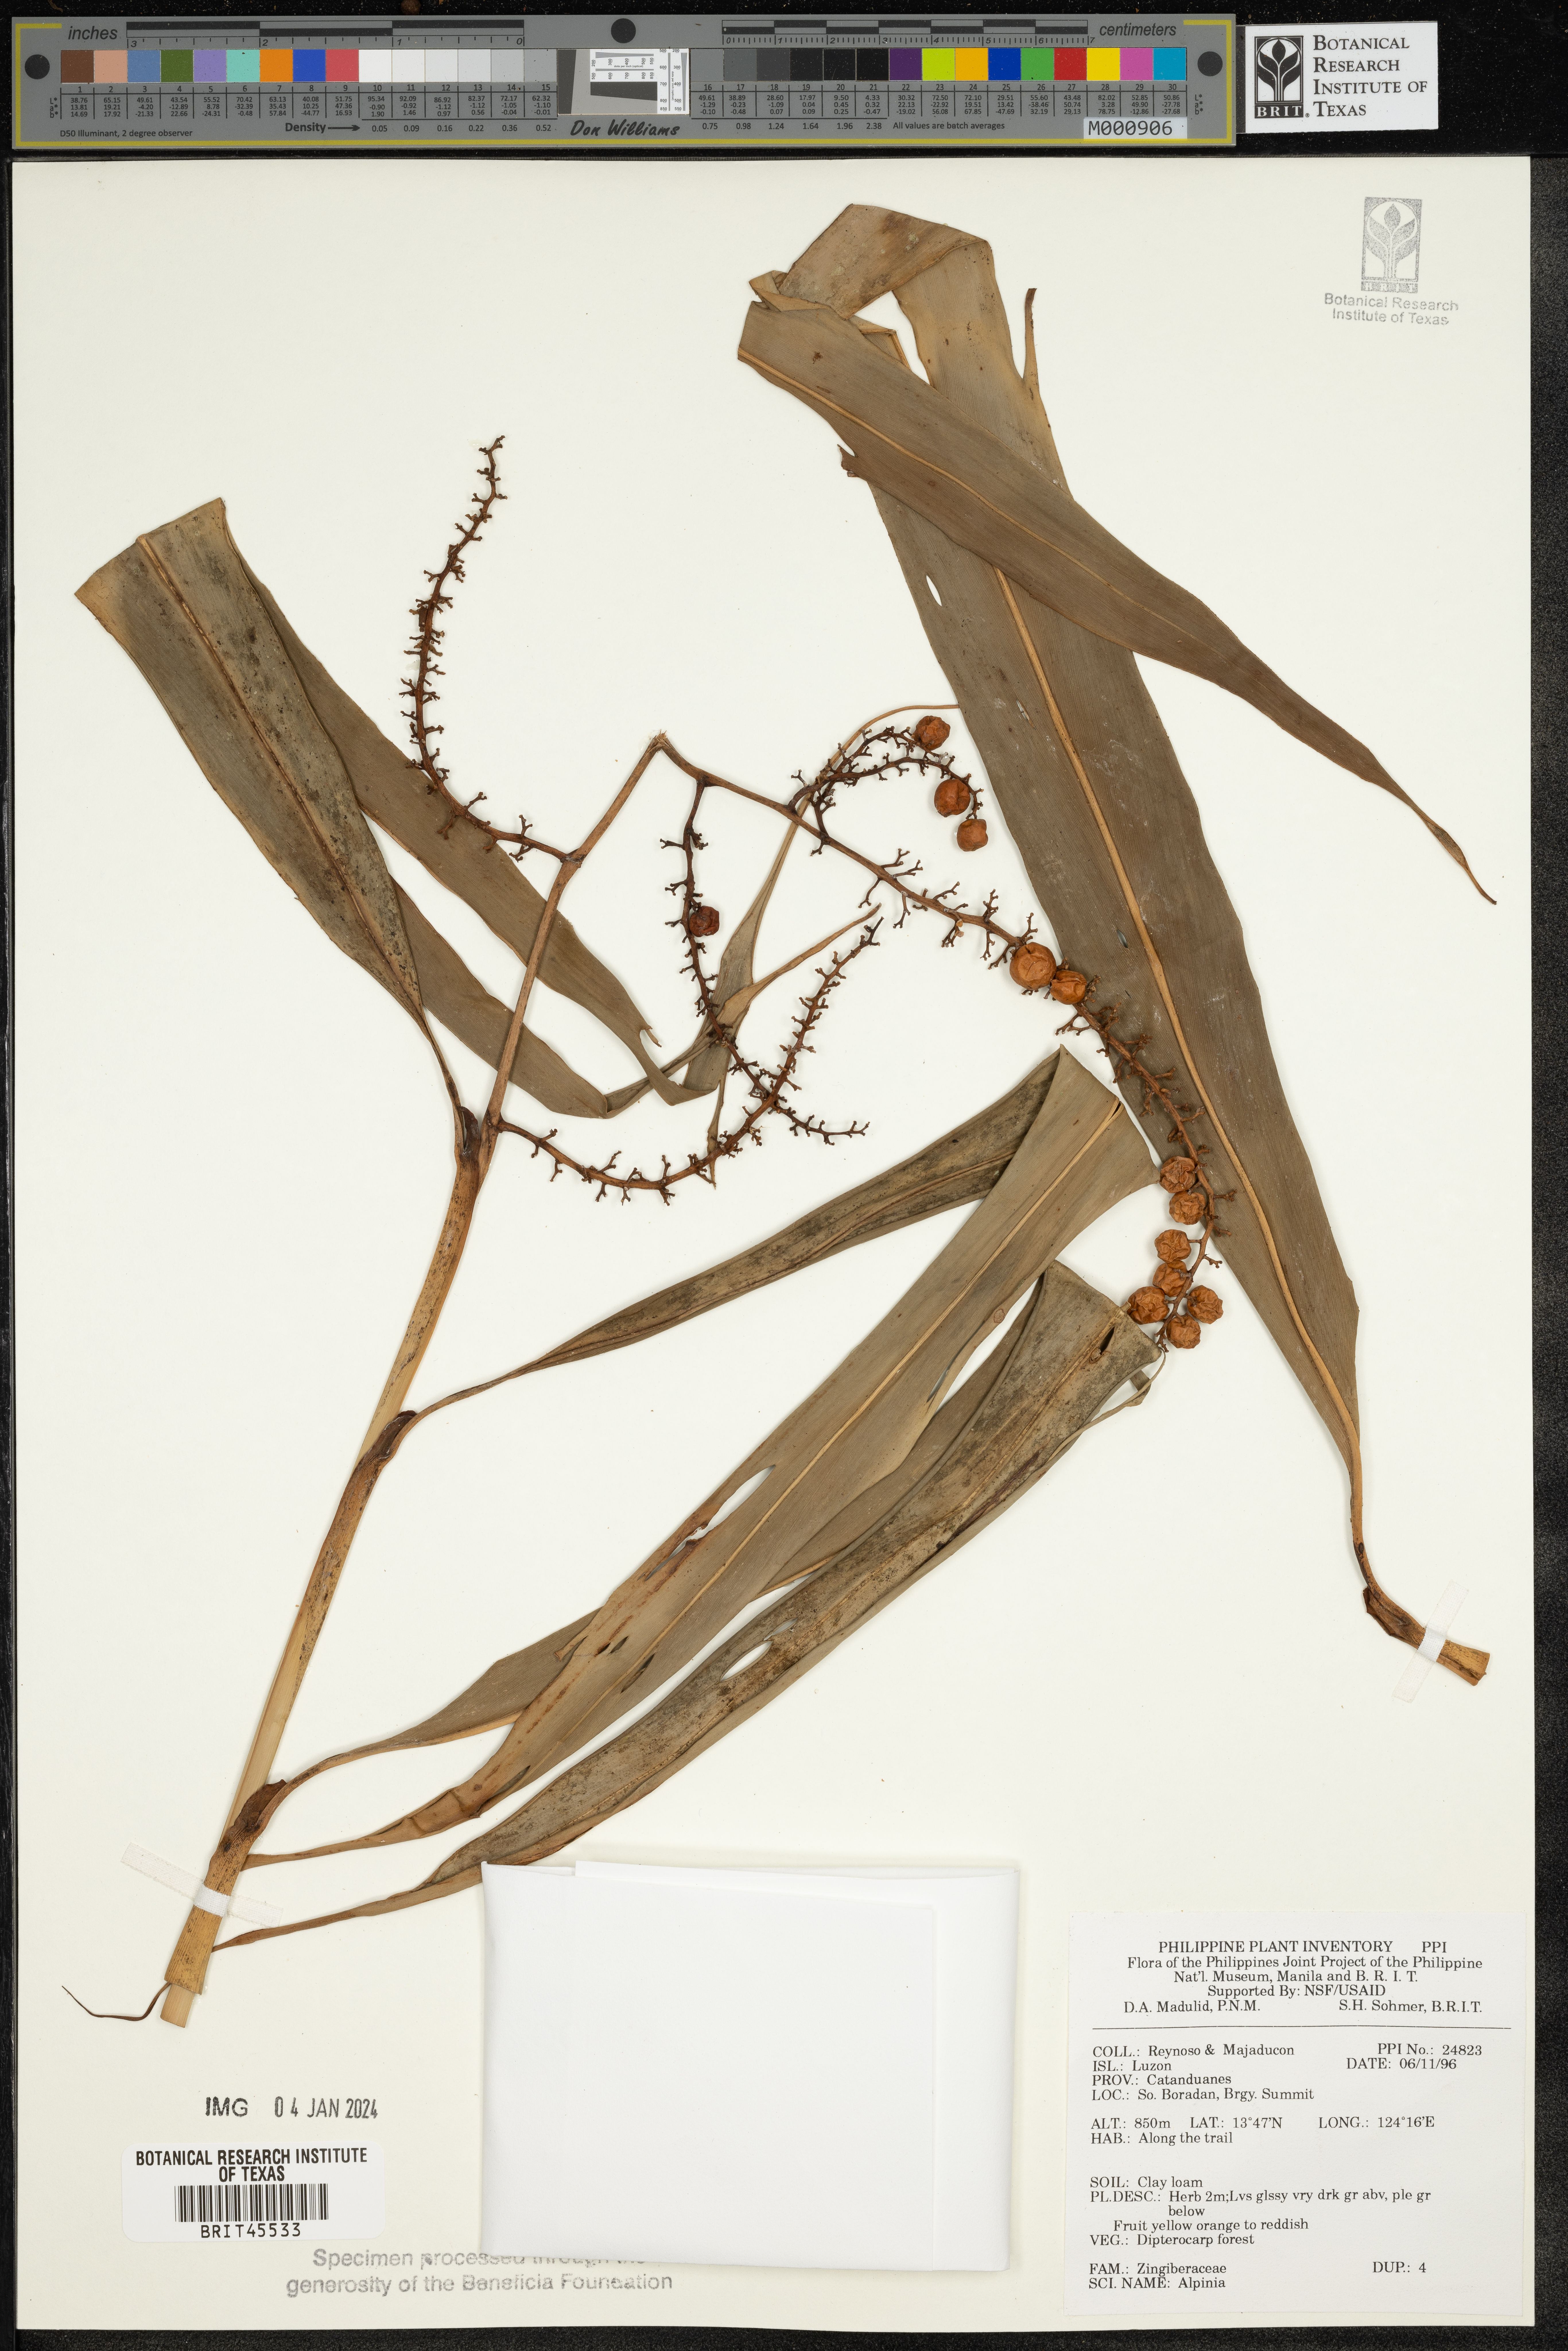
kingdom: Plantae
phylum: Tracheophyta
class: Liliopsida
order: Zingiberales
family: Zingiberaceae
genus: Alpinia
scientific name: Alpinia
